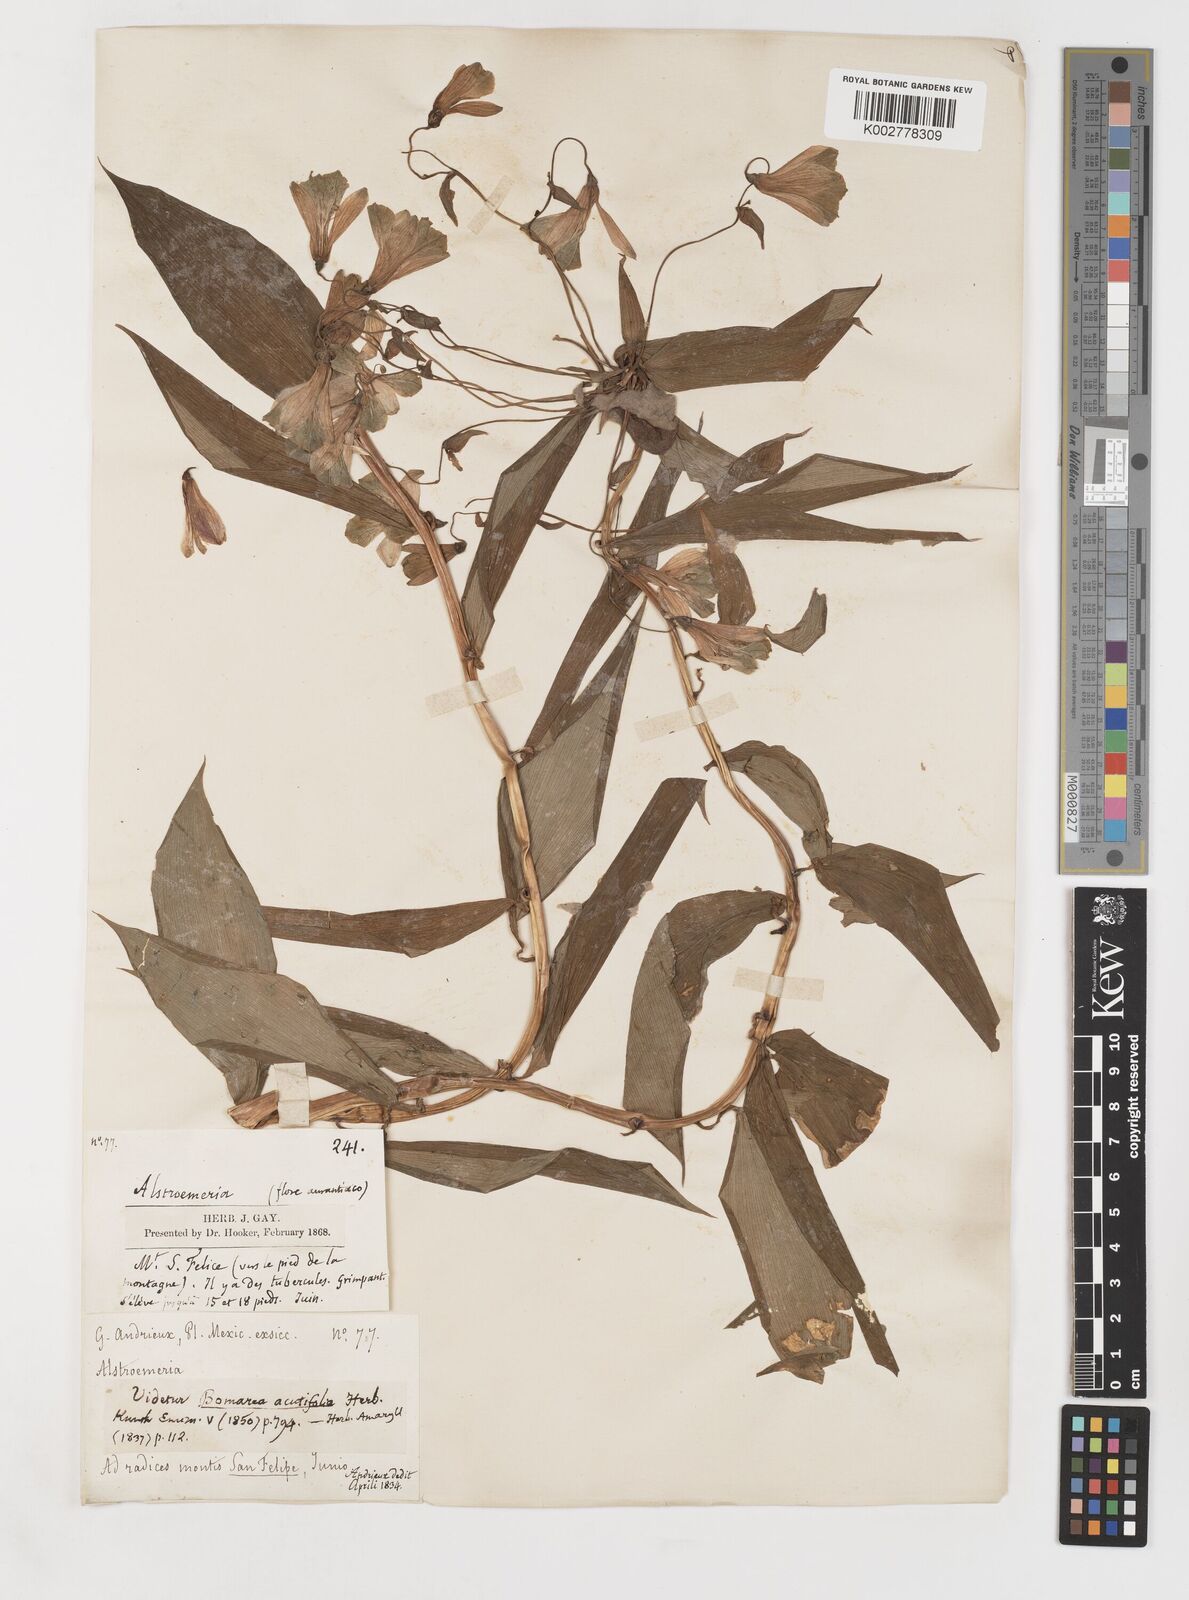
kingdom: Plantae
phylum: Tracheophyta
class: Liliopsida
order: Liliales
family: Alstroemeriaceae
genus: Bomarea
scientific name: Bomarea edulis
